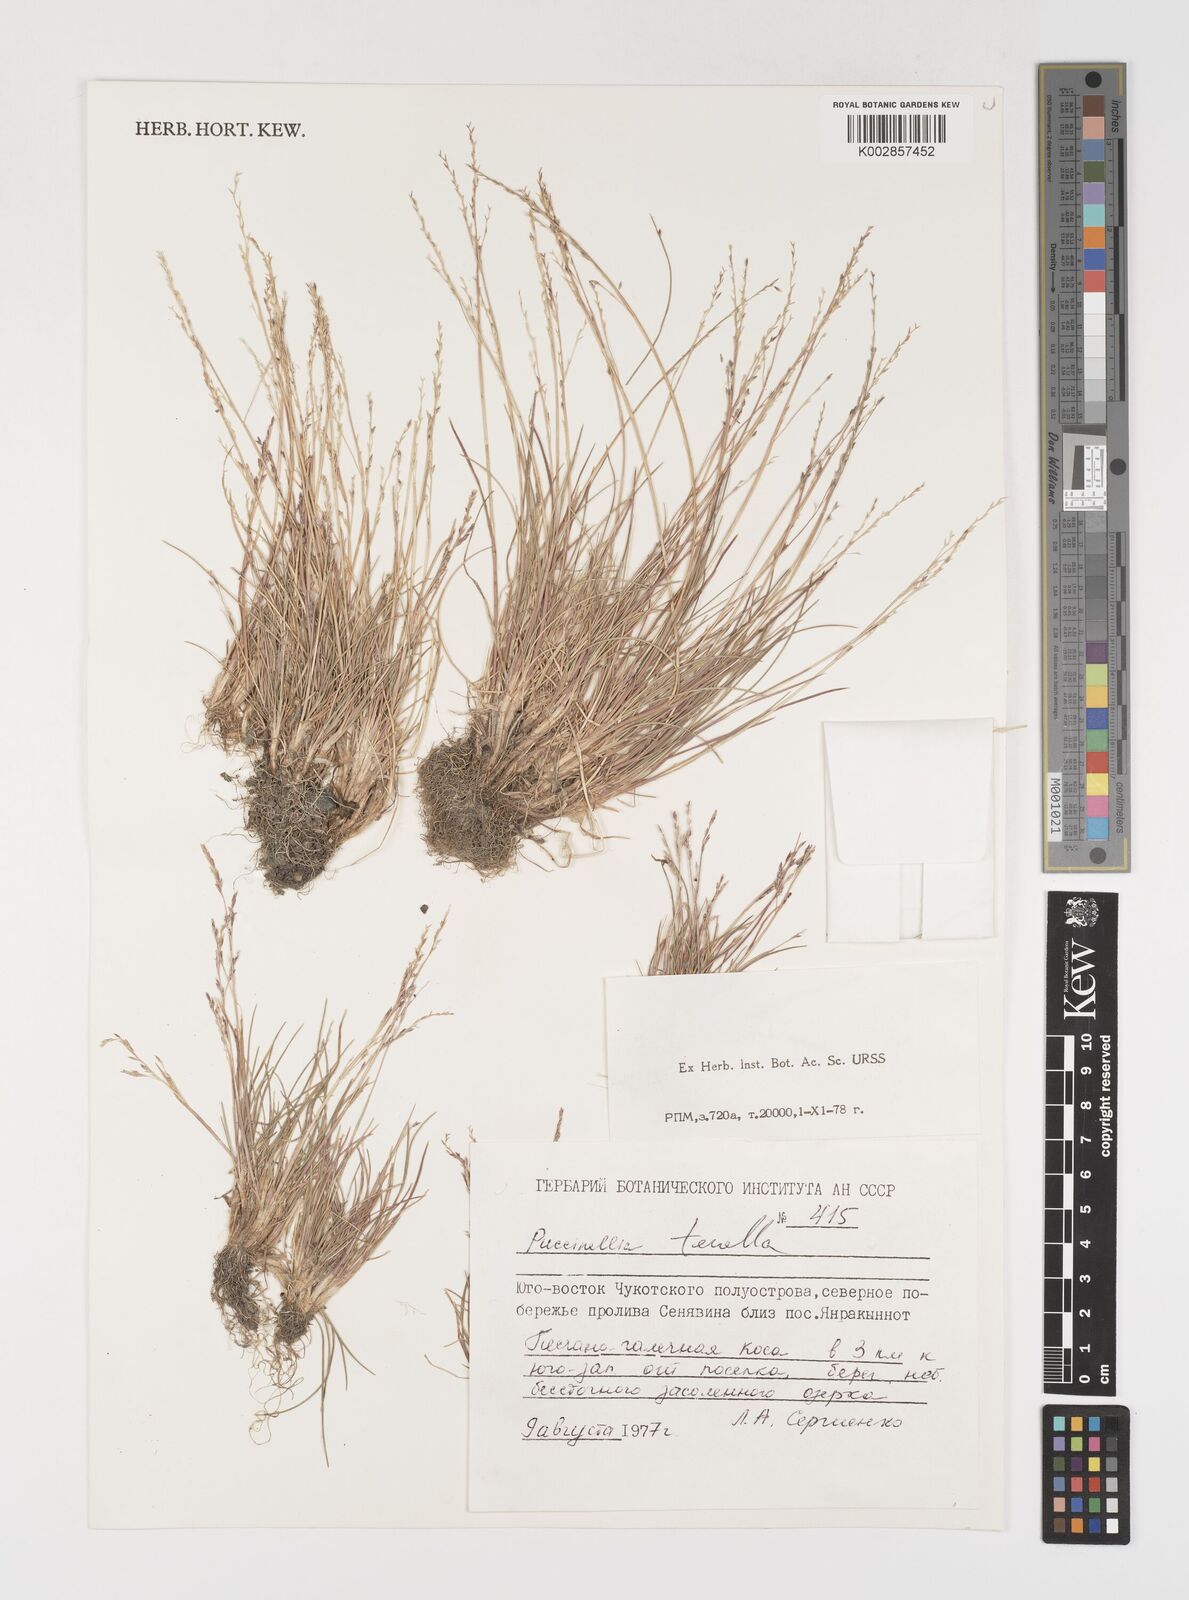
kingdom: Plantae
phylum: Tracheophyta
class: Liliopsida
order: Poales
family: Poaceae
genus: Puccinellia
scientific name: Puccinellia tenella
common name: Tundra alkaligrass
